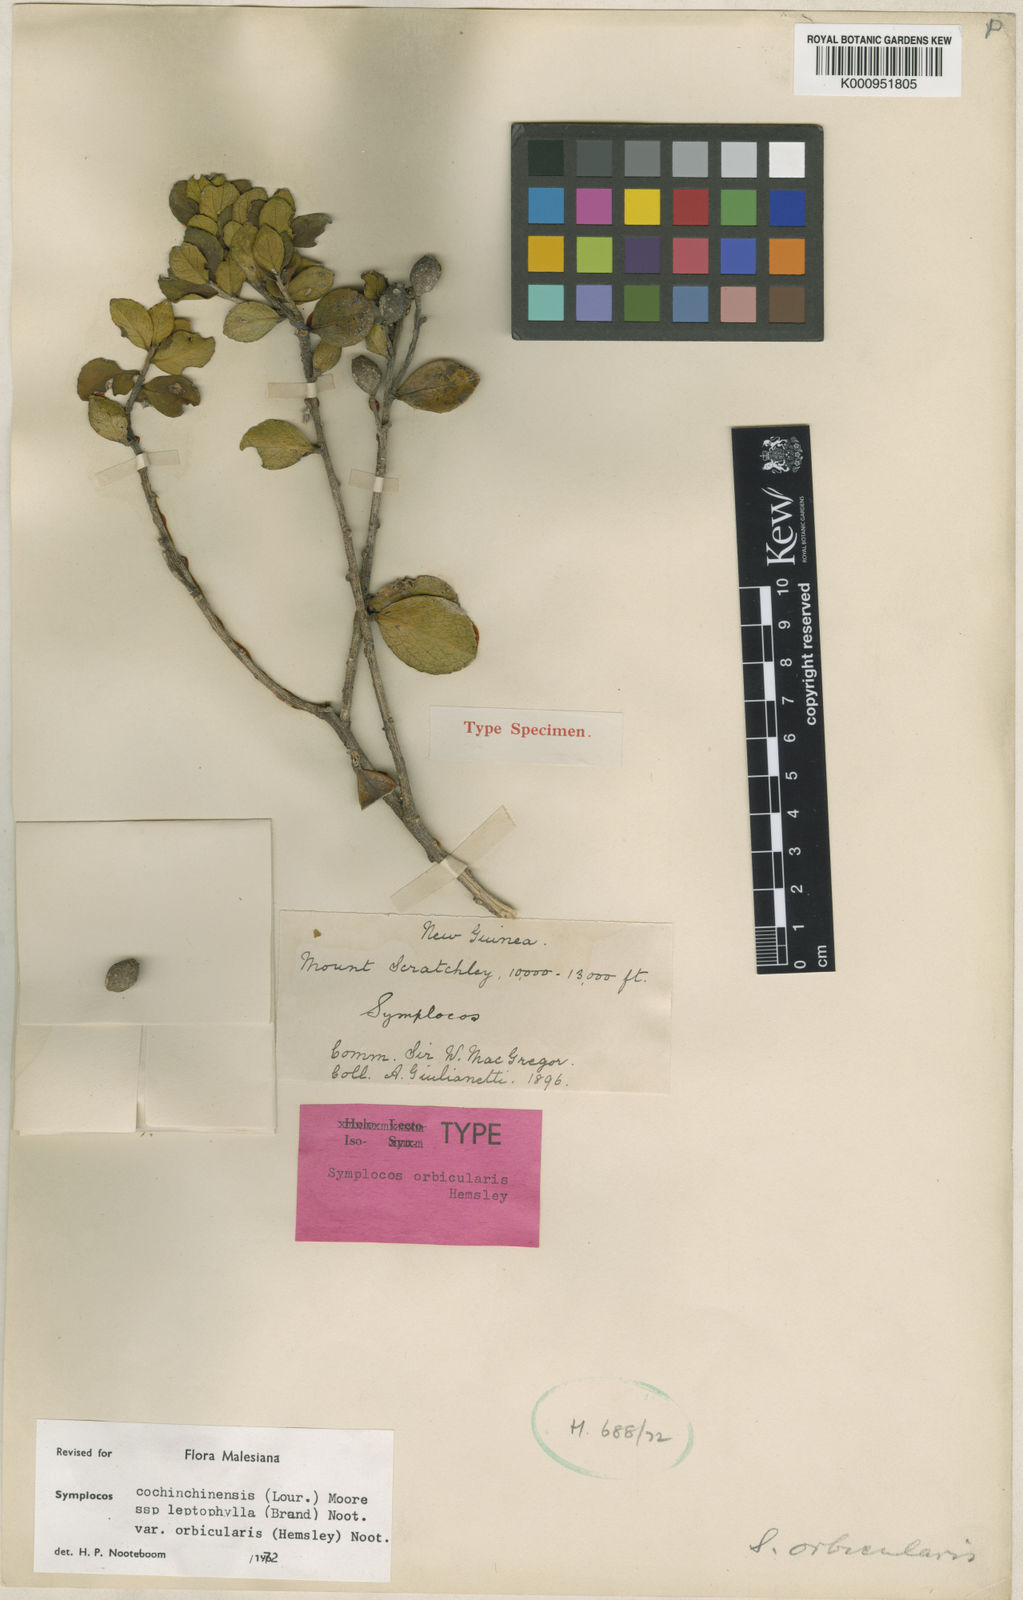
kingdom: Plantae
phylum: Tracheophyta
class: Magnoliopsida
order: Ericales
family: Symplocaceae
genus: Symplocos
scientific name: Symplocos cochinchinensis
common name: Buff hazelwood
